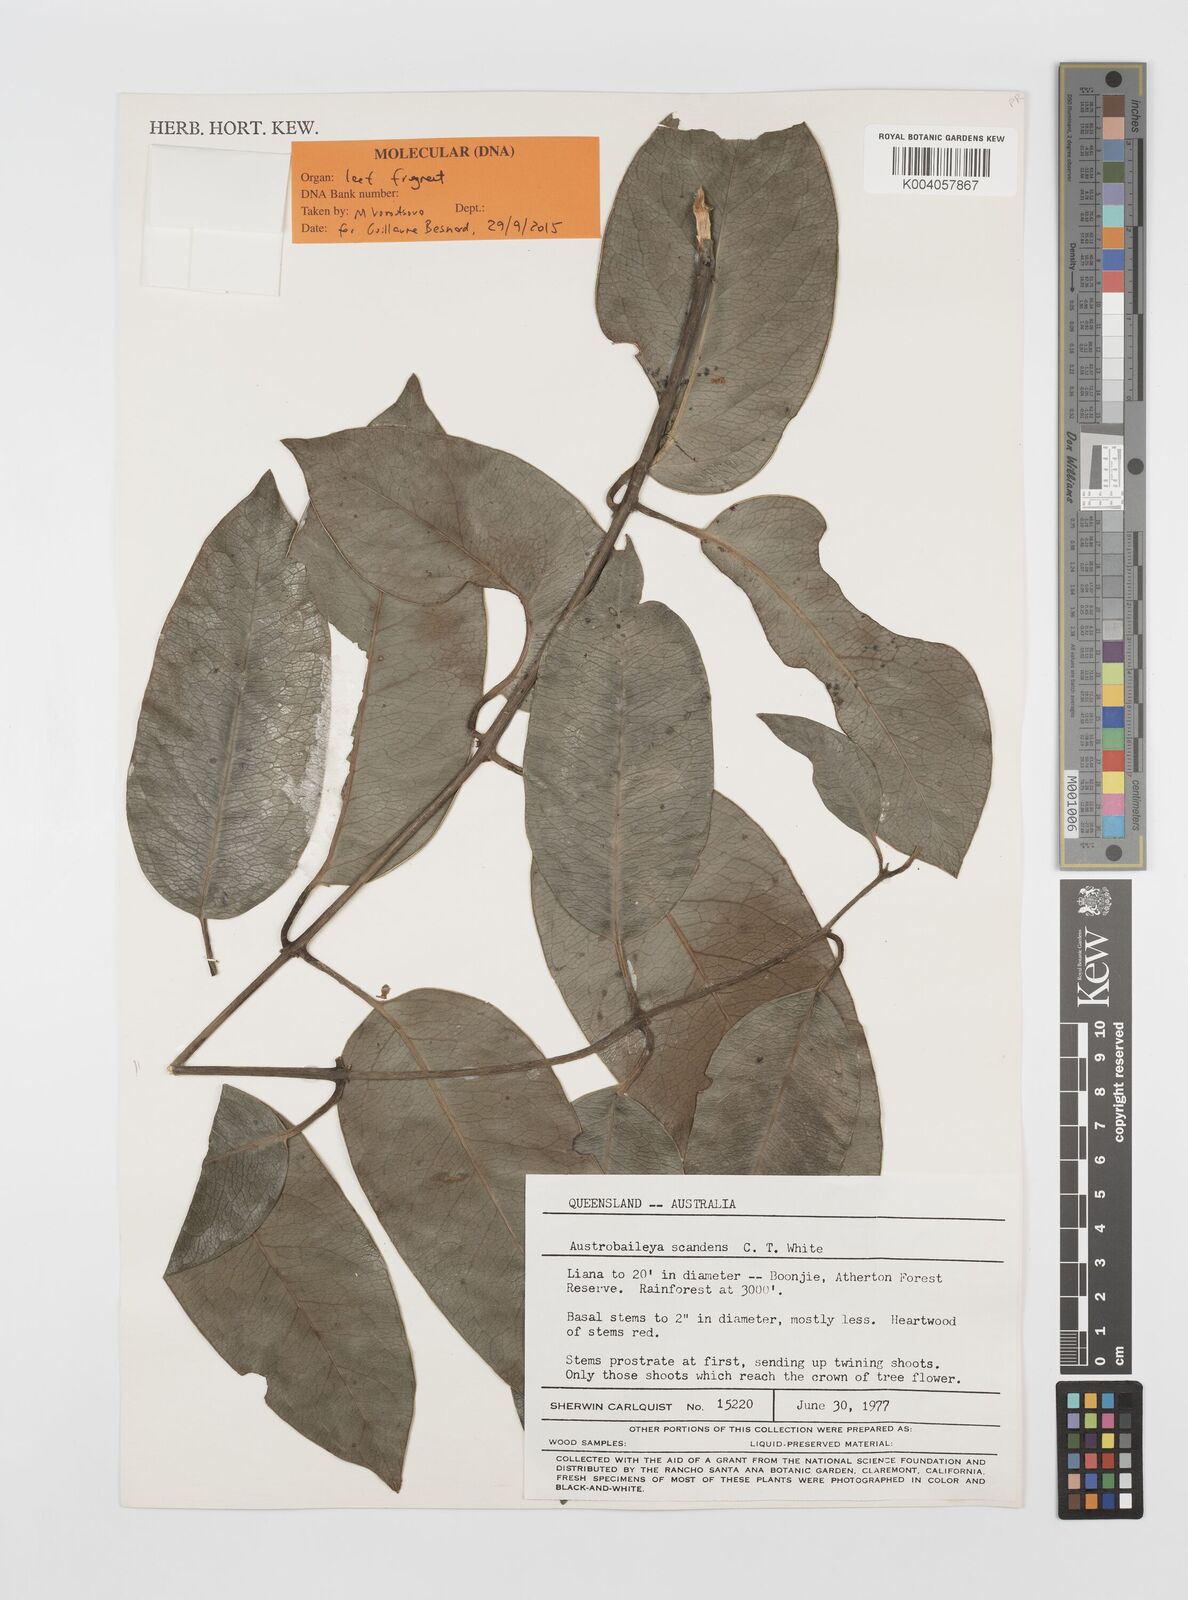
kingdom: Plantae
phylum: Tracheophyta
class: Magnoliopsida
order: Austrobaileyales
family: Austrobaileyaceae
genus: Austrobaileya
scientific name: Austrobaileya scandens
